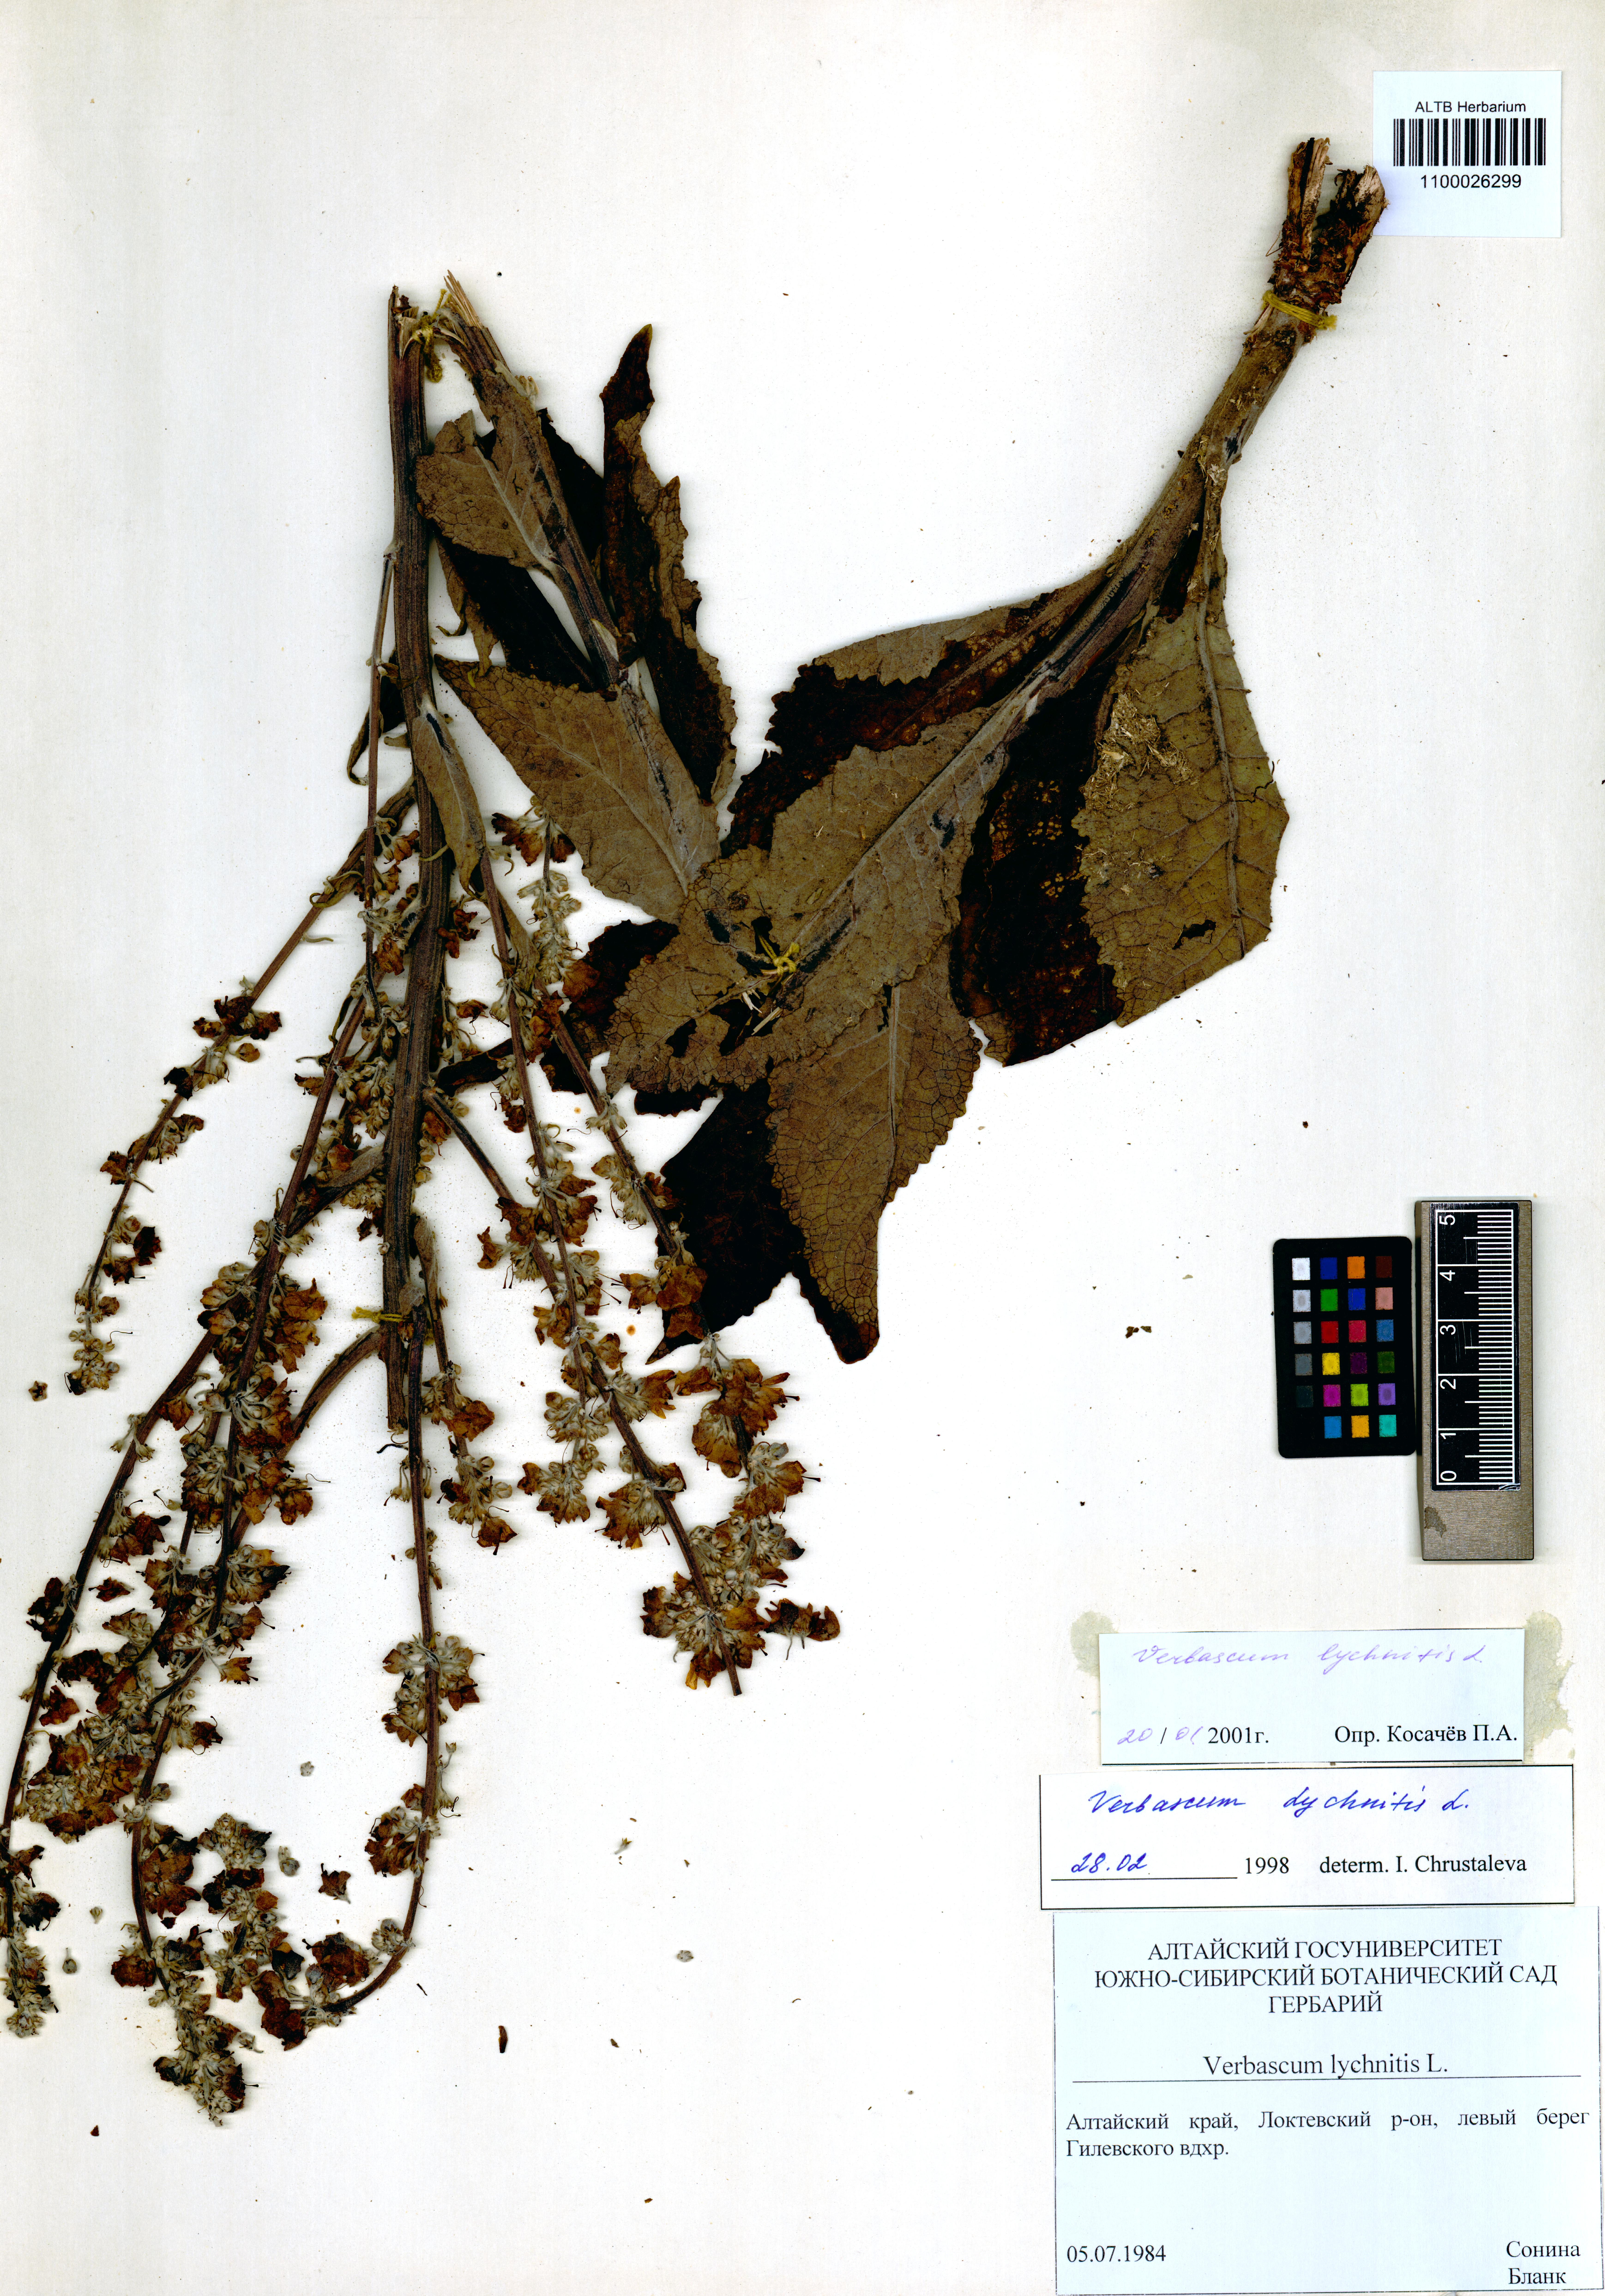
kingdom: Plantae
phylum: Tracheophyta
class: Magnoliopsida
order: Lamiales
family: Scrophulariaceae
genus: Verbascum
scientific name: Verbascum lychnitis
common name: White mullein
